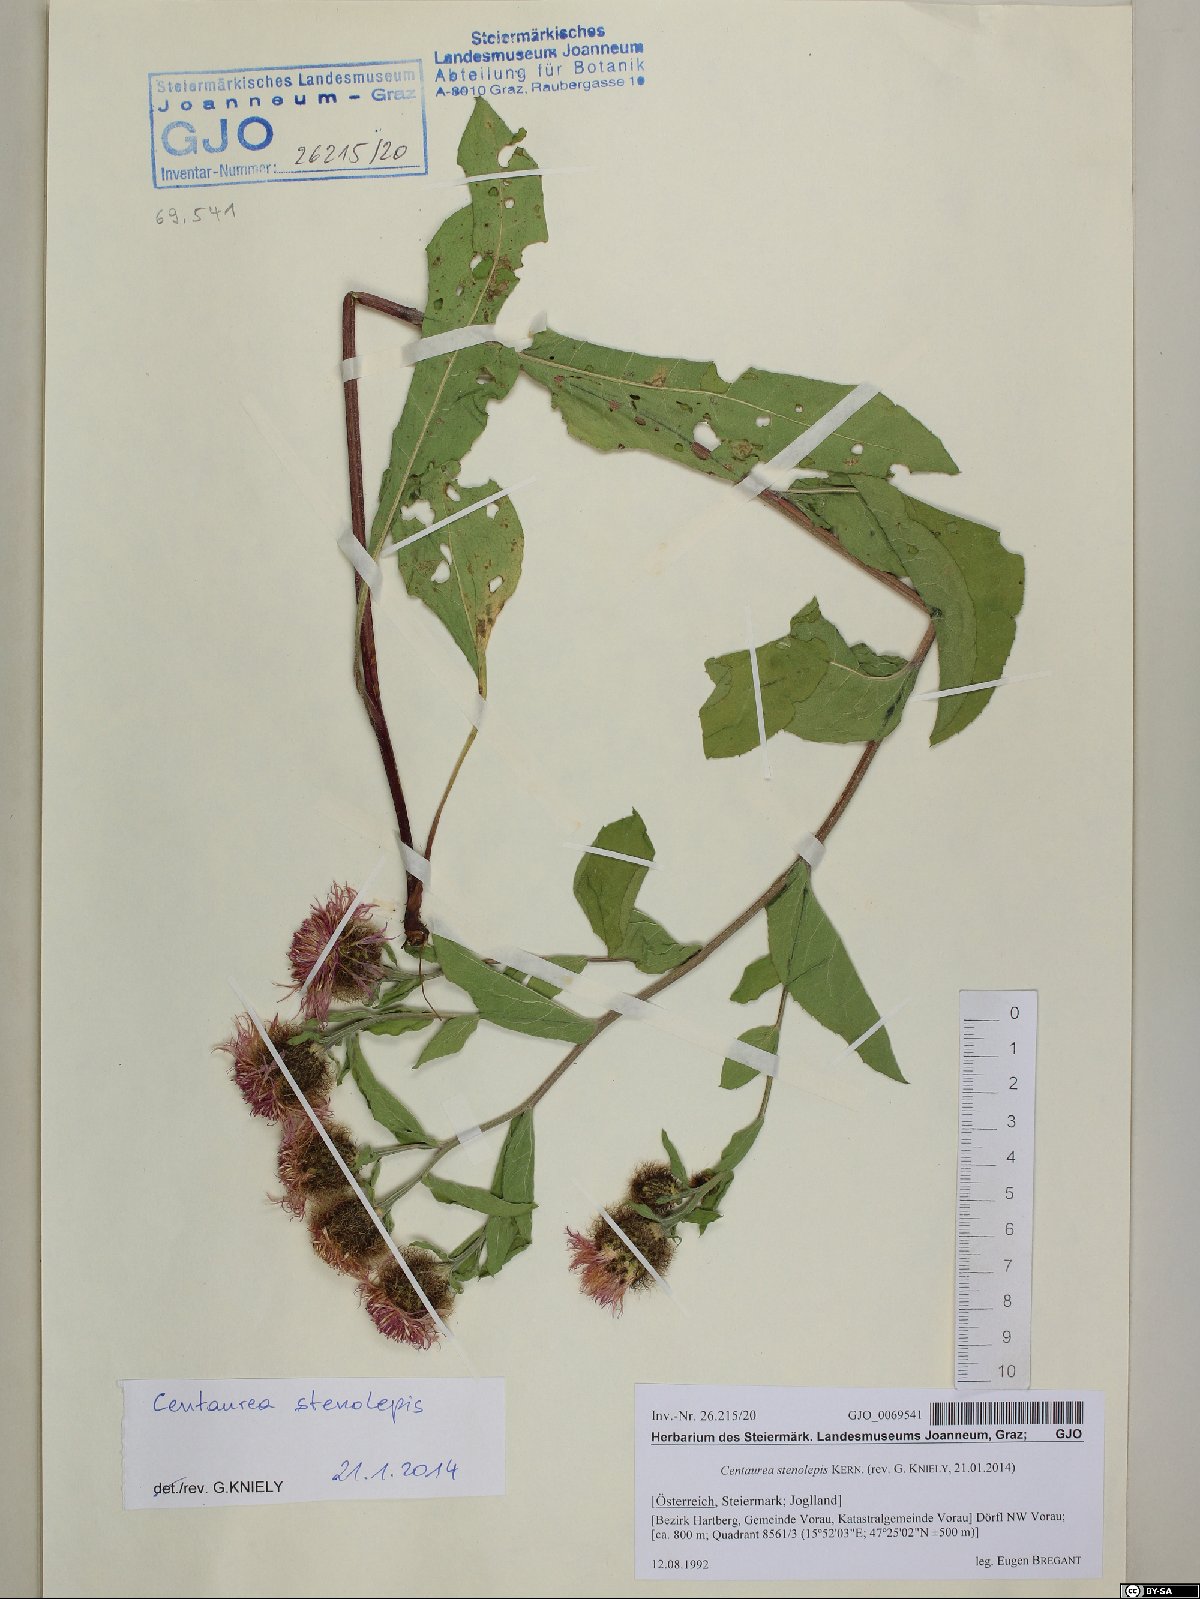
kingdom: Plantae
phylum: Tracheophyta
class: Magnoliopsida
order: Asterales
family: Asteraceae
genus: Centaurea
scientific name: Centaurea stenolepis
